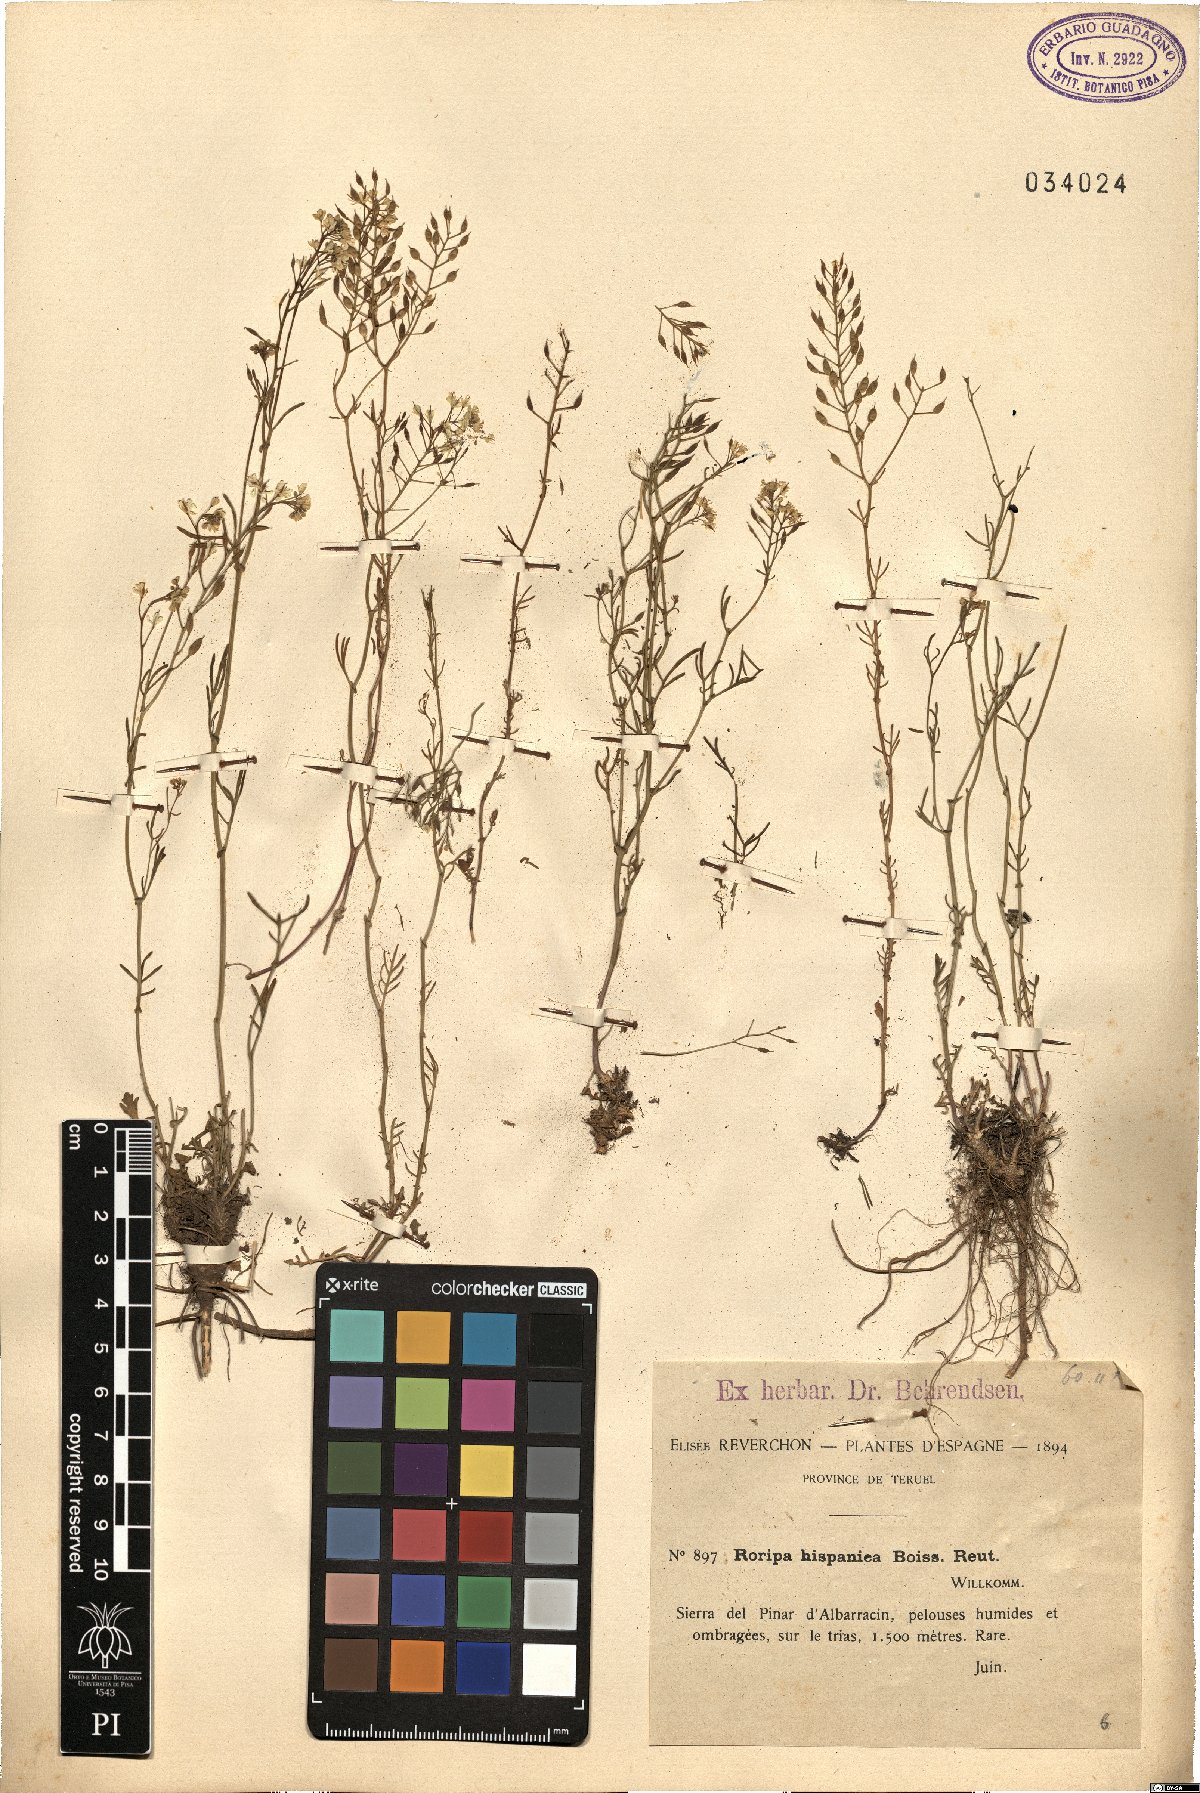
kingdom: Plantae
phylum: Tracheophyta
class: Magnoliopsida
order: Brassicales
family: Brassicaceae
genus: Rorippa
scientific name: Rorippa pyrenaica
